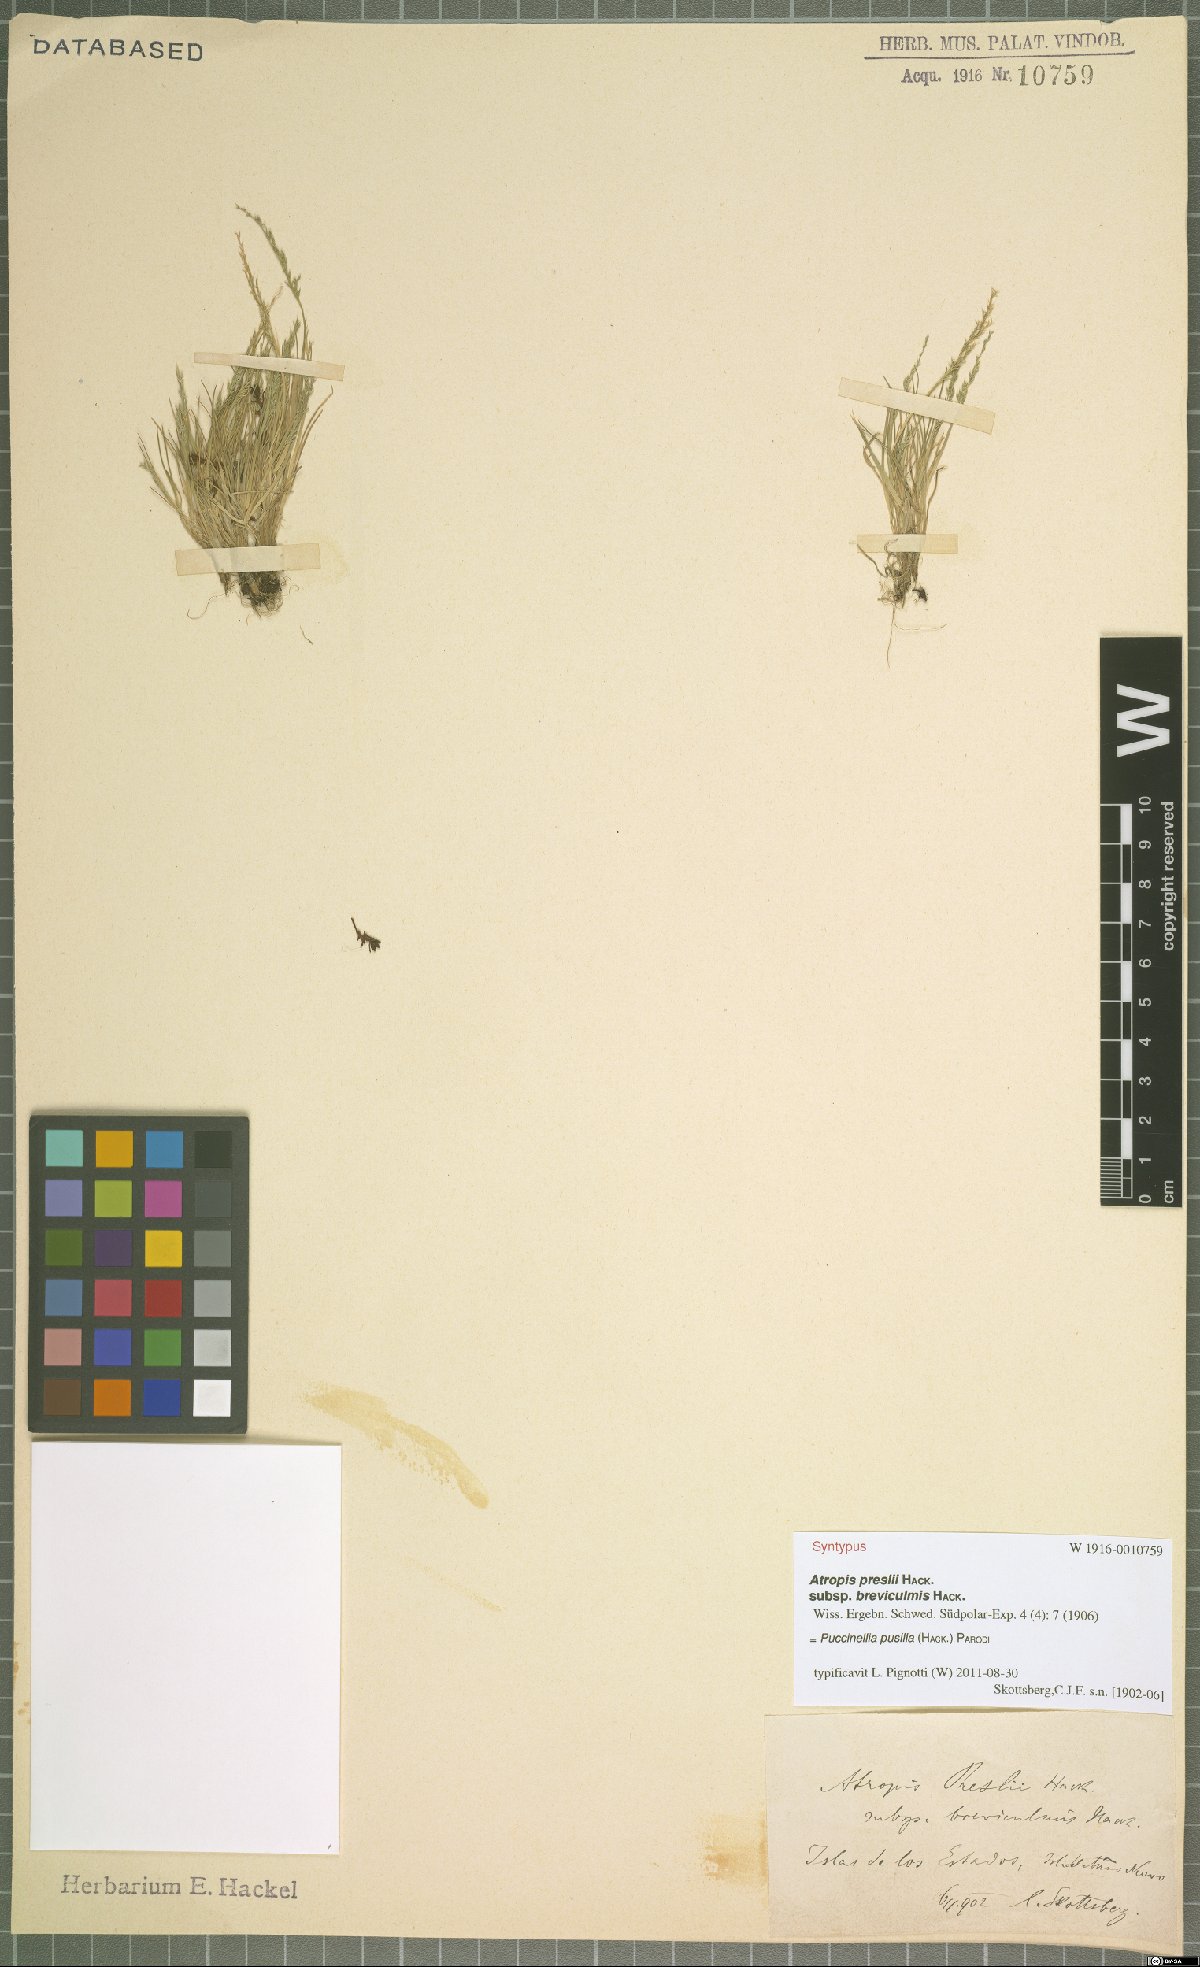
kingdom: Plantae
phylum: Tracheophyta
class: Liliopsida
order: Poales
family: Poaceae
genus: Puccinellia
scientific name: Puccinellia pusilla
